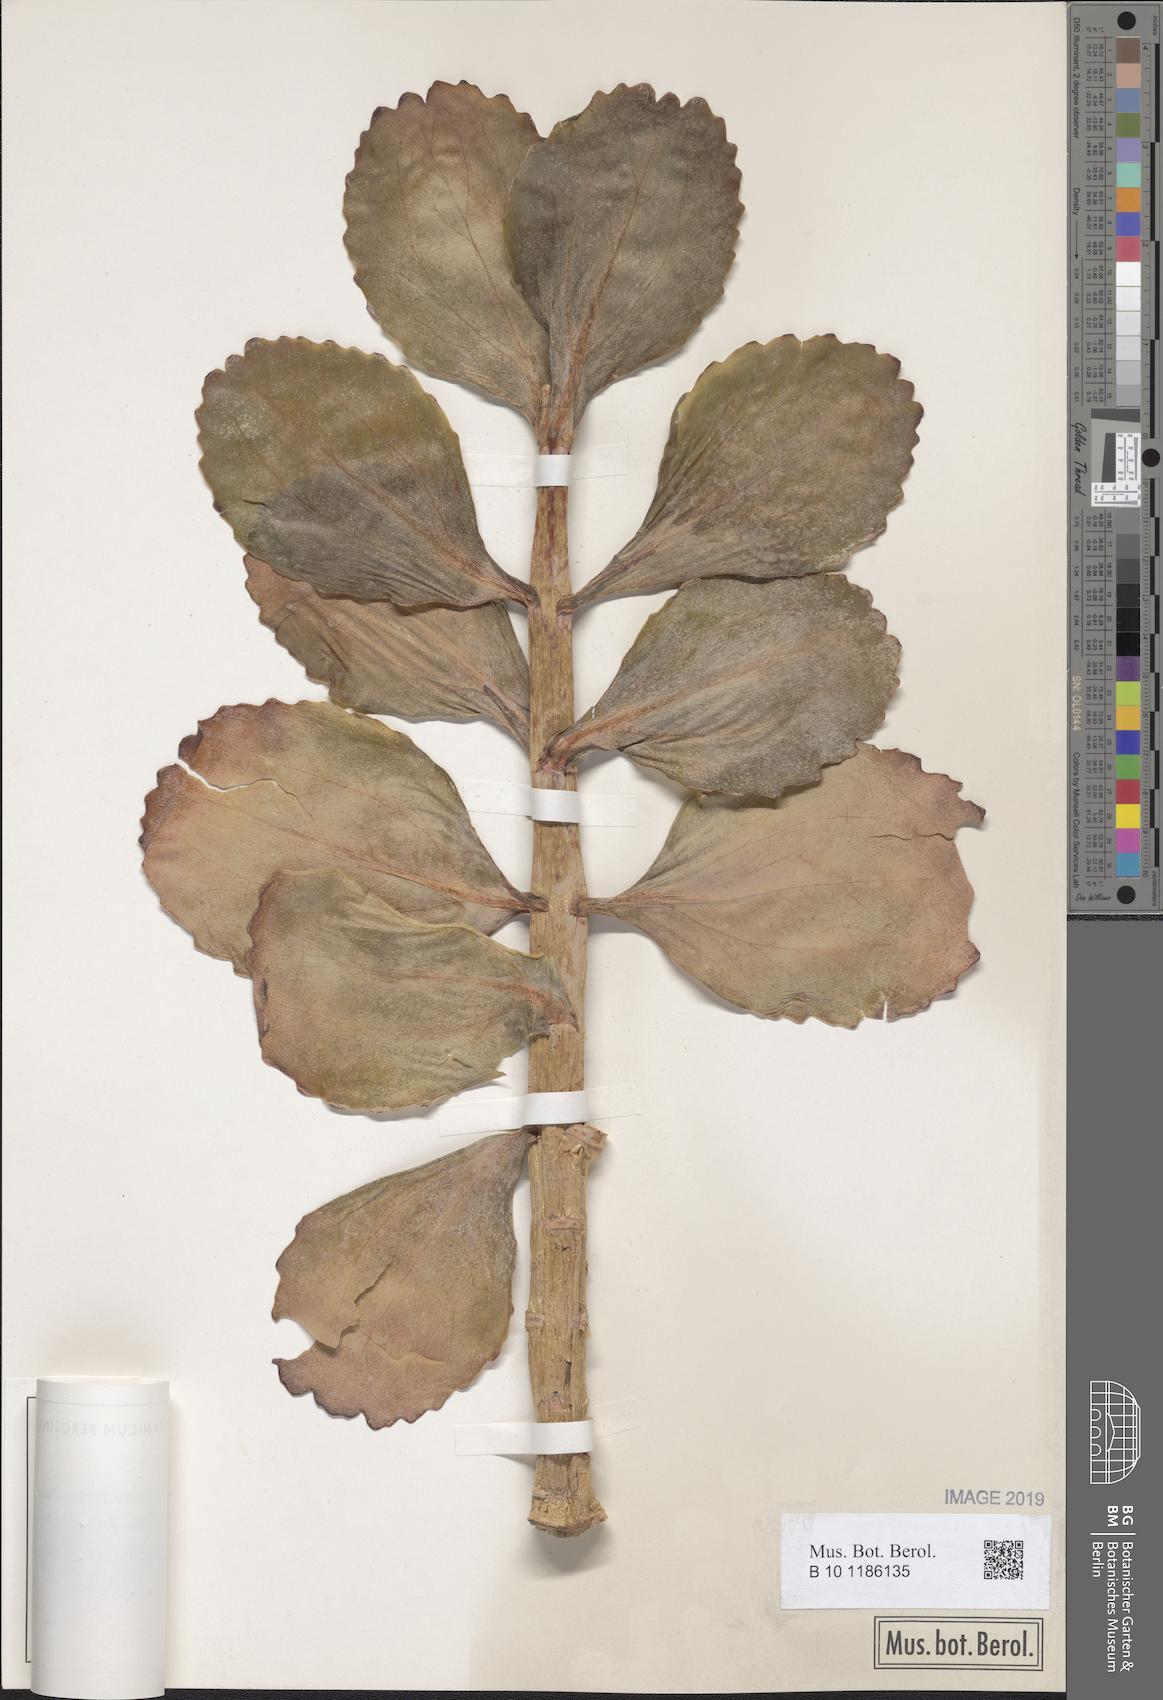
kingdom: Plantae
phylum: Tracheophyta
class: Magnoliopsida
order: Saxifragales
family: Crassulaceae
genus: Kalanchoe
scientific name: Kalanchoe marmorata
